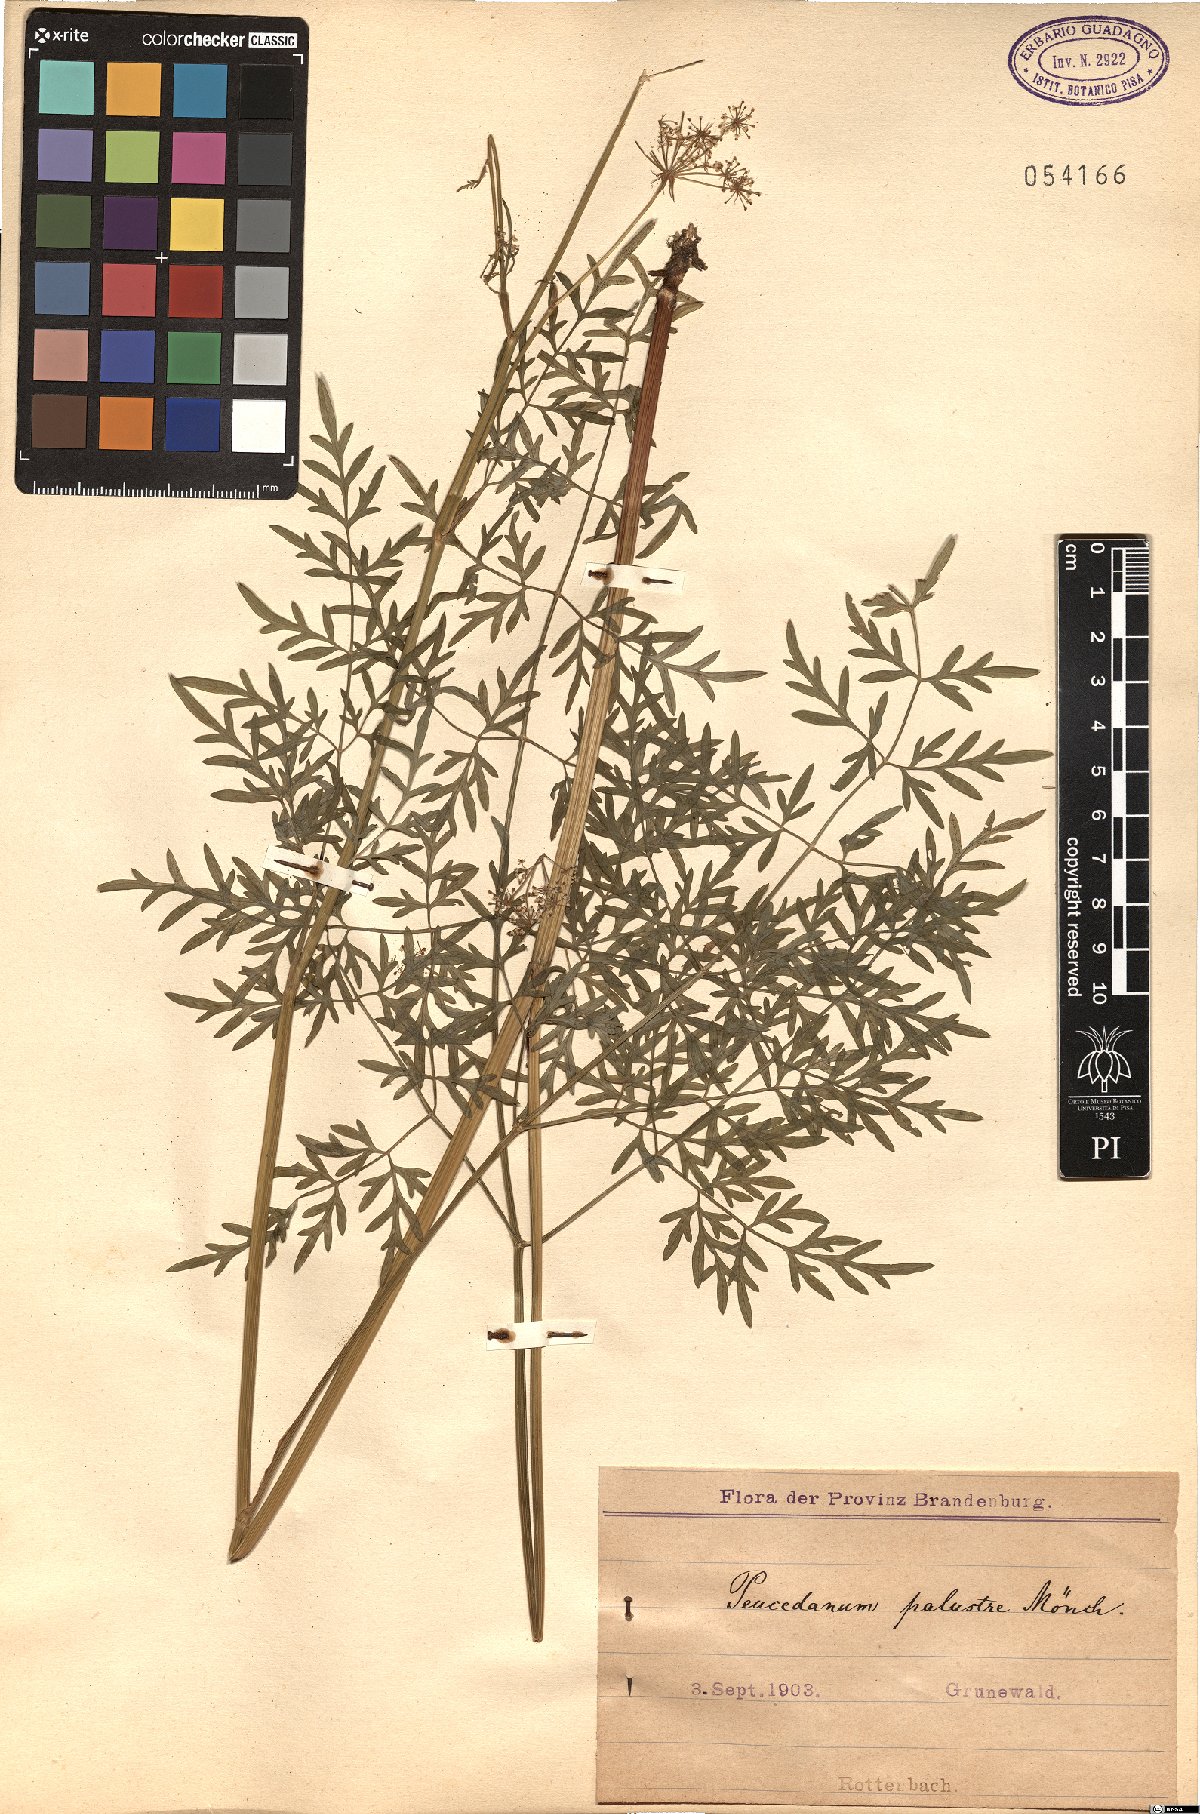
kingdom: Plantae
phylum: Tracheophyta
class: Magnoliopsida
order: Apiales
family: Apiaceae
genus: Thysselinum
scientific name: Thysselinum palustre
